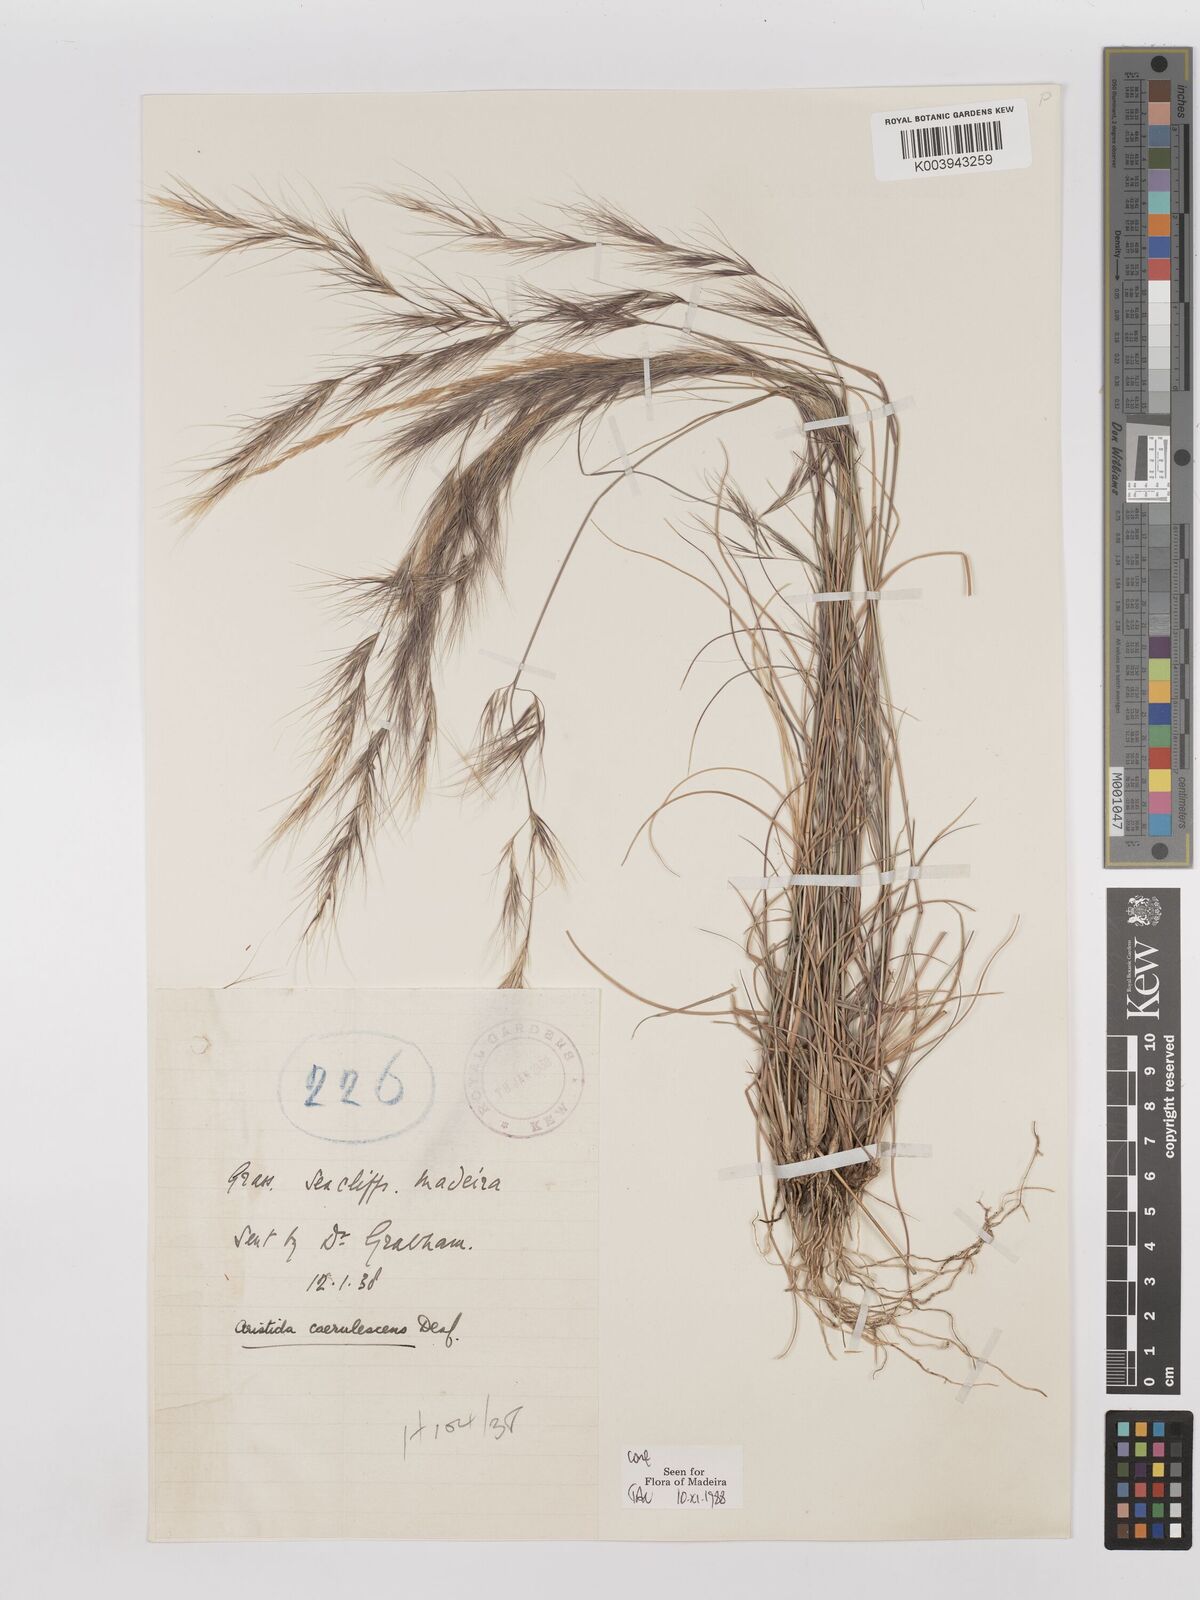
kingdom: Plantae
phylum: Tracheophyta
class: Liliopsida
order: Poales
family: Poaceae
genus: Aristida
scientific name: Aristida adscensionis
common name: Sixweeks threeawn
